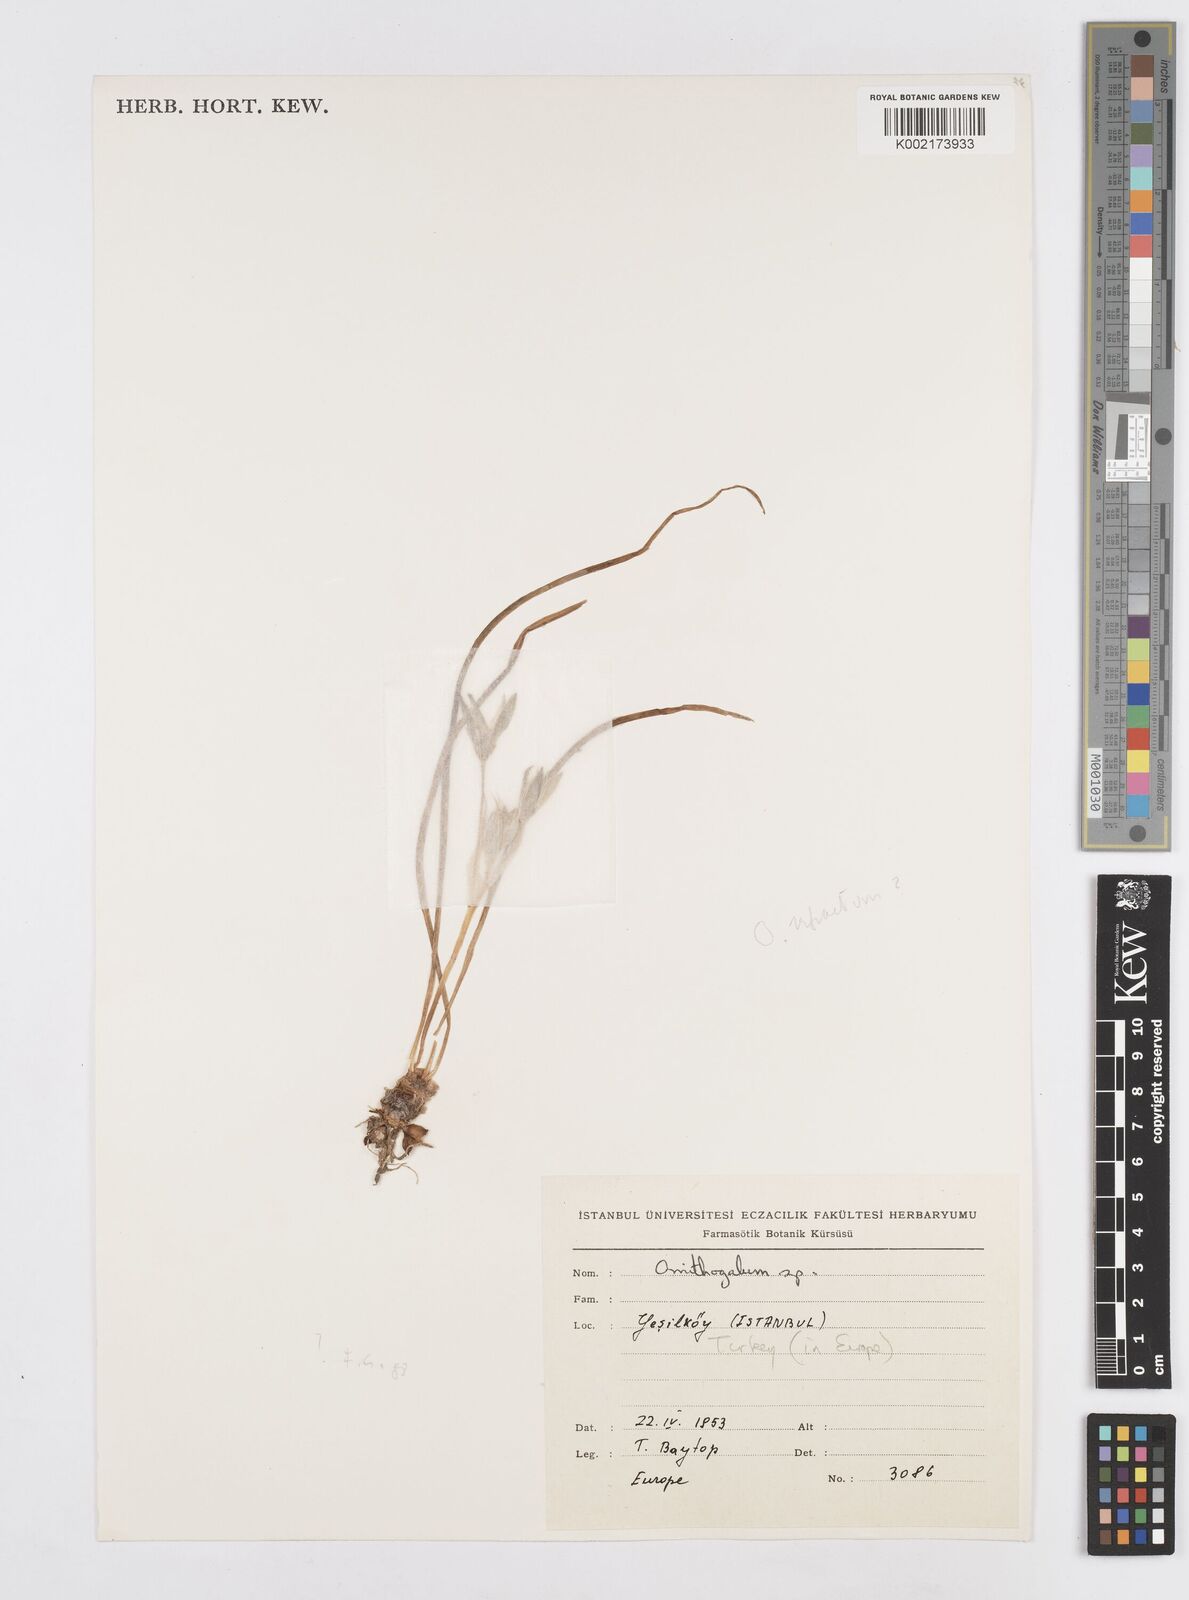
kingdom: Plantae
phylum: Tracheophyta
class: Liliopsida
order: Asparagales
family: Asparagaceae
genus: Ornithogalum
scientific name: Ornithogalum refractum
